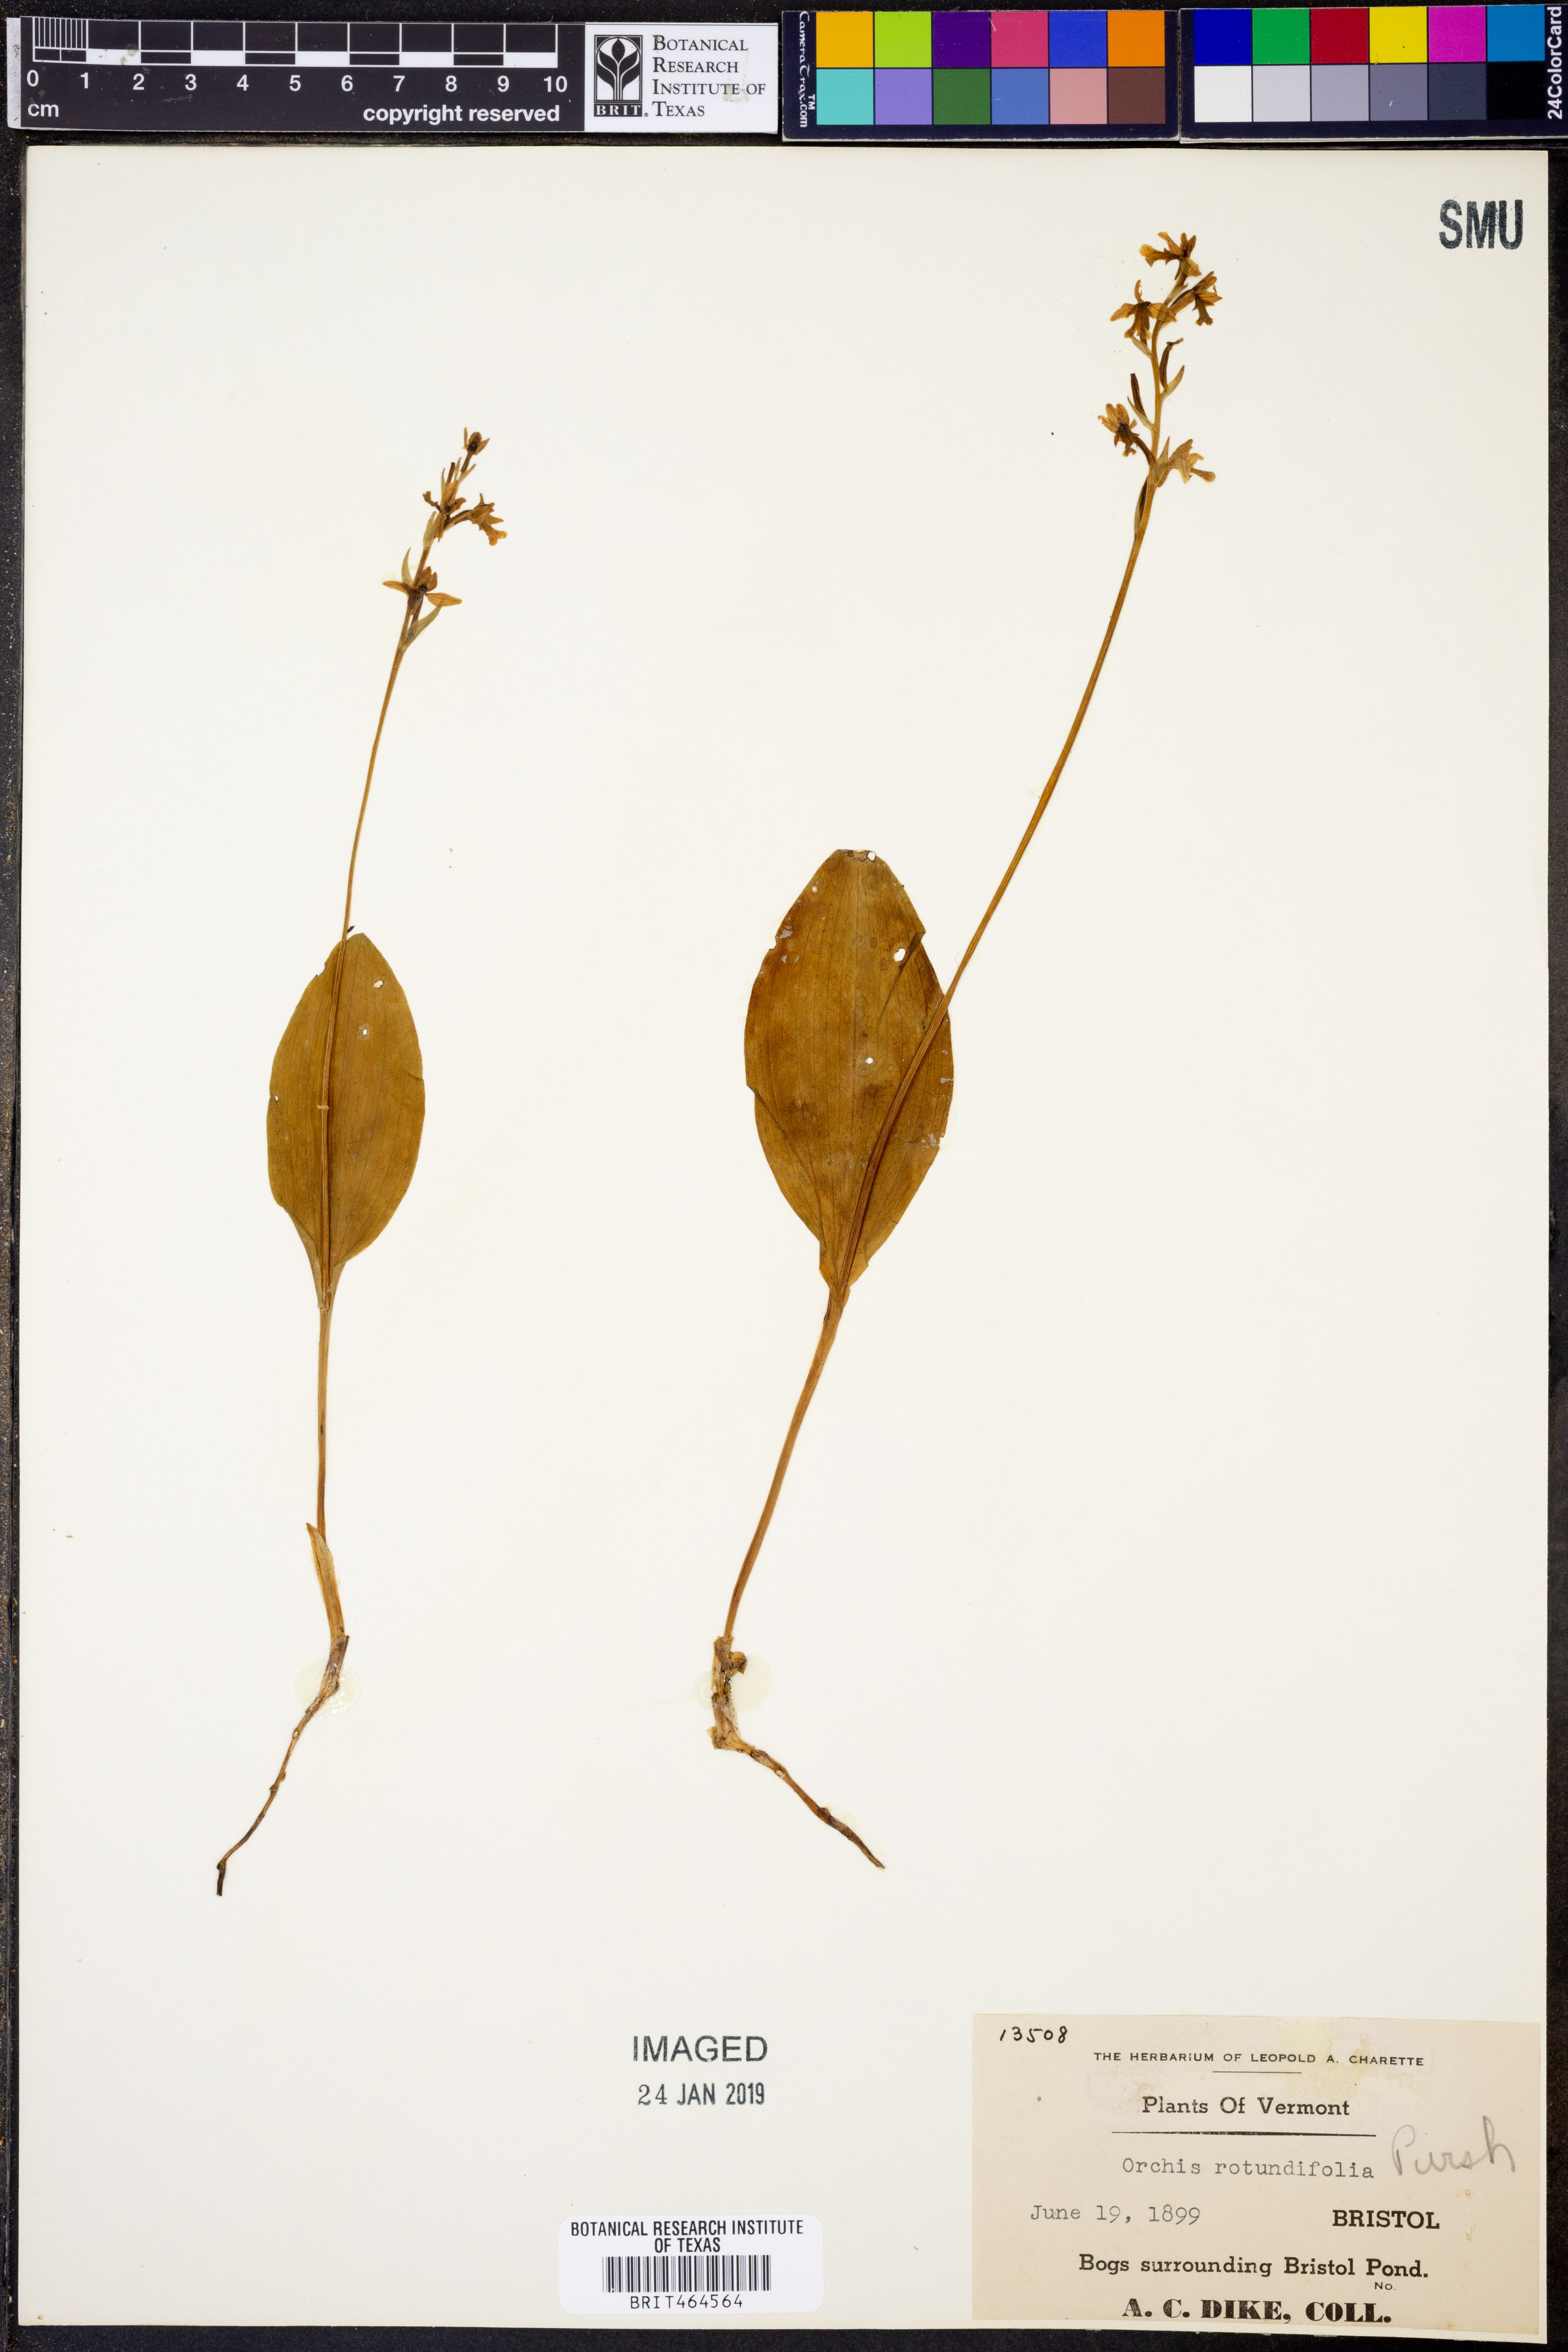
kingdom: Plantae
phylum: Tracheophyta
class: Liliopsida
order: Asparagales
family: Orchidaceae
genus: Galearis
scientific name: Galearis rotundifolia
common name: One-leaved orchis
